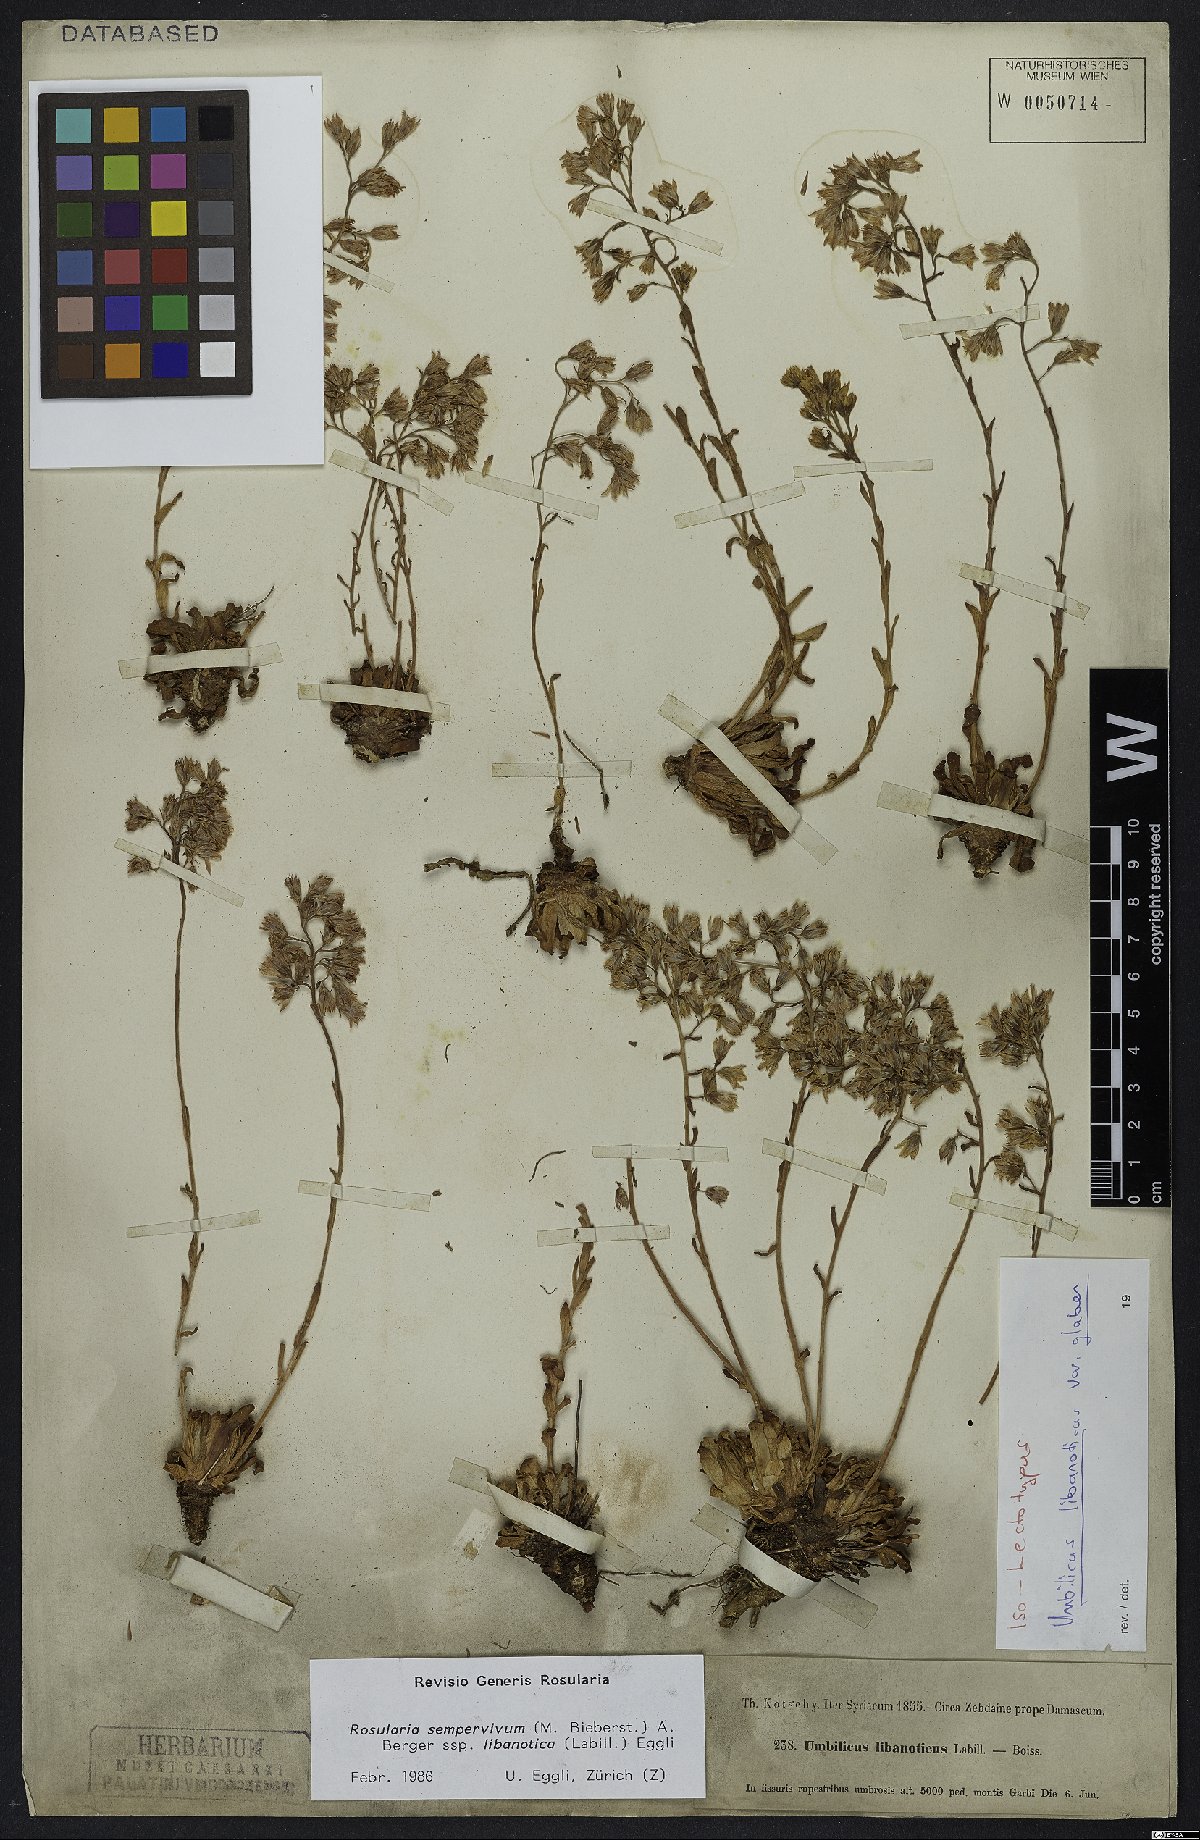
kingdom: Plantae
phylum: Tracheophyta
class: Magnoliopsida
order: Saxifragales
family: Crassulaceae
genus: Rosularia
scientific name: Rosularia sempervivum
